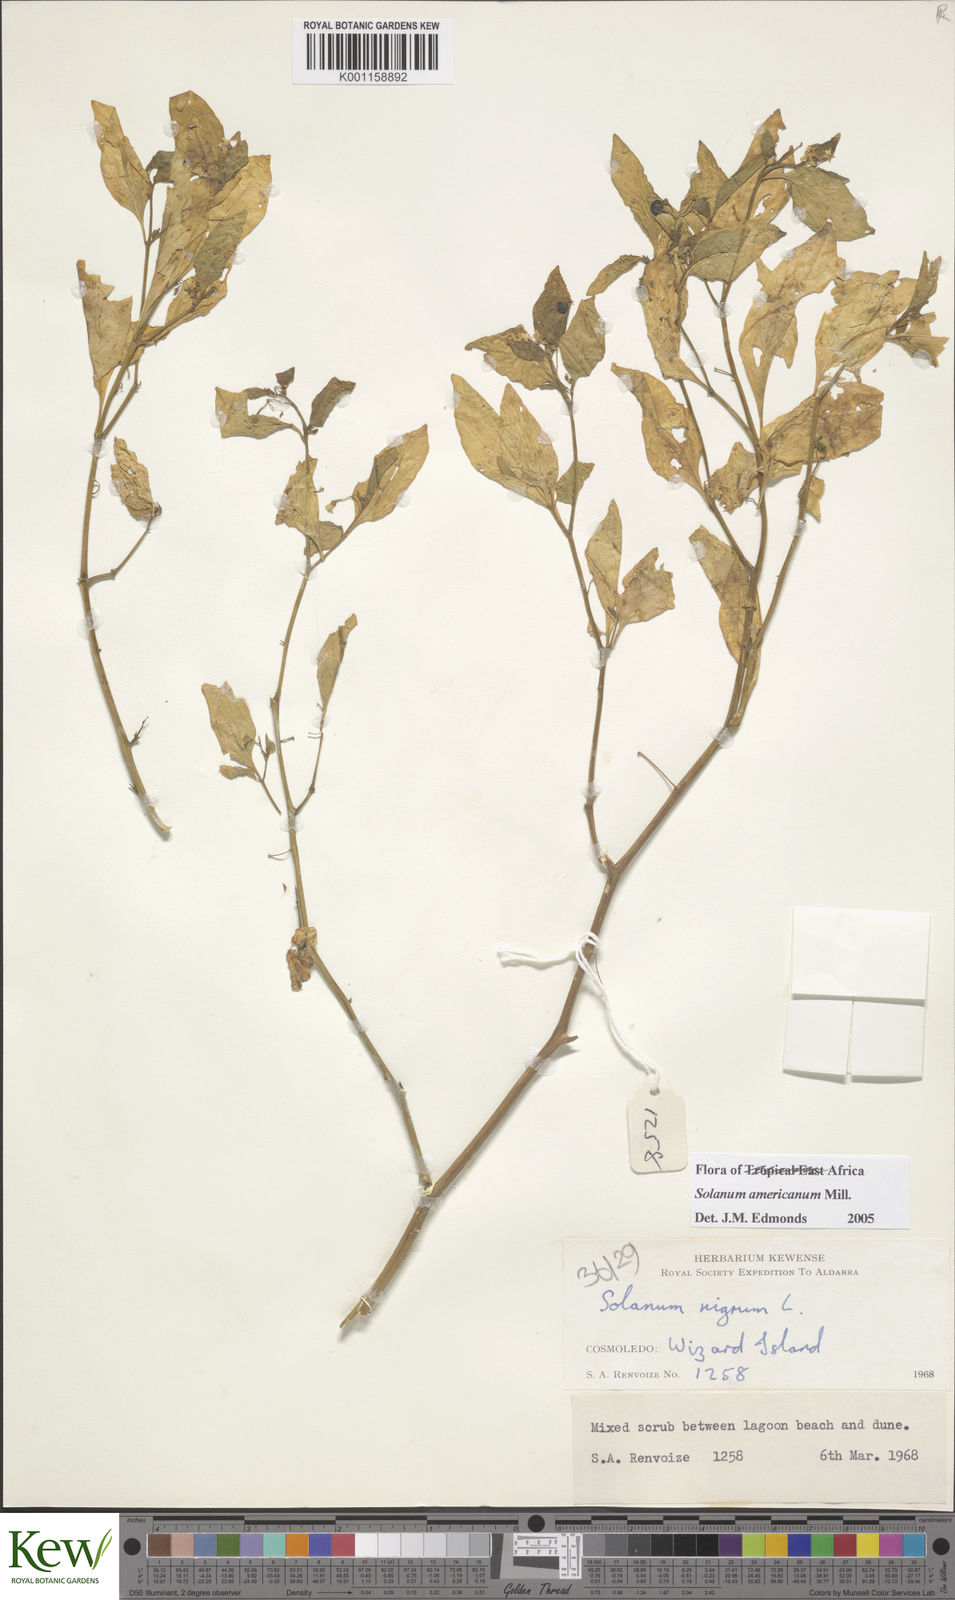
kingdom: Plantae
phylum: Tracheophyta
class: Magnoliopsida
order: Solanales
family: Solanaceae
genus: Solanum
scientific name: Solanum americanum
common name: American black nightshade
